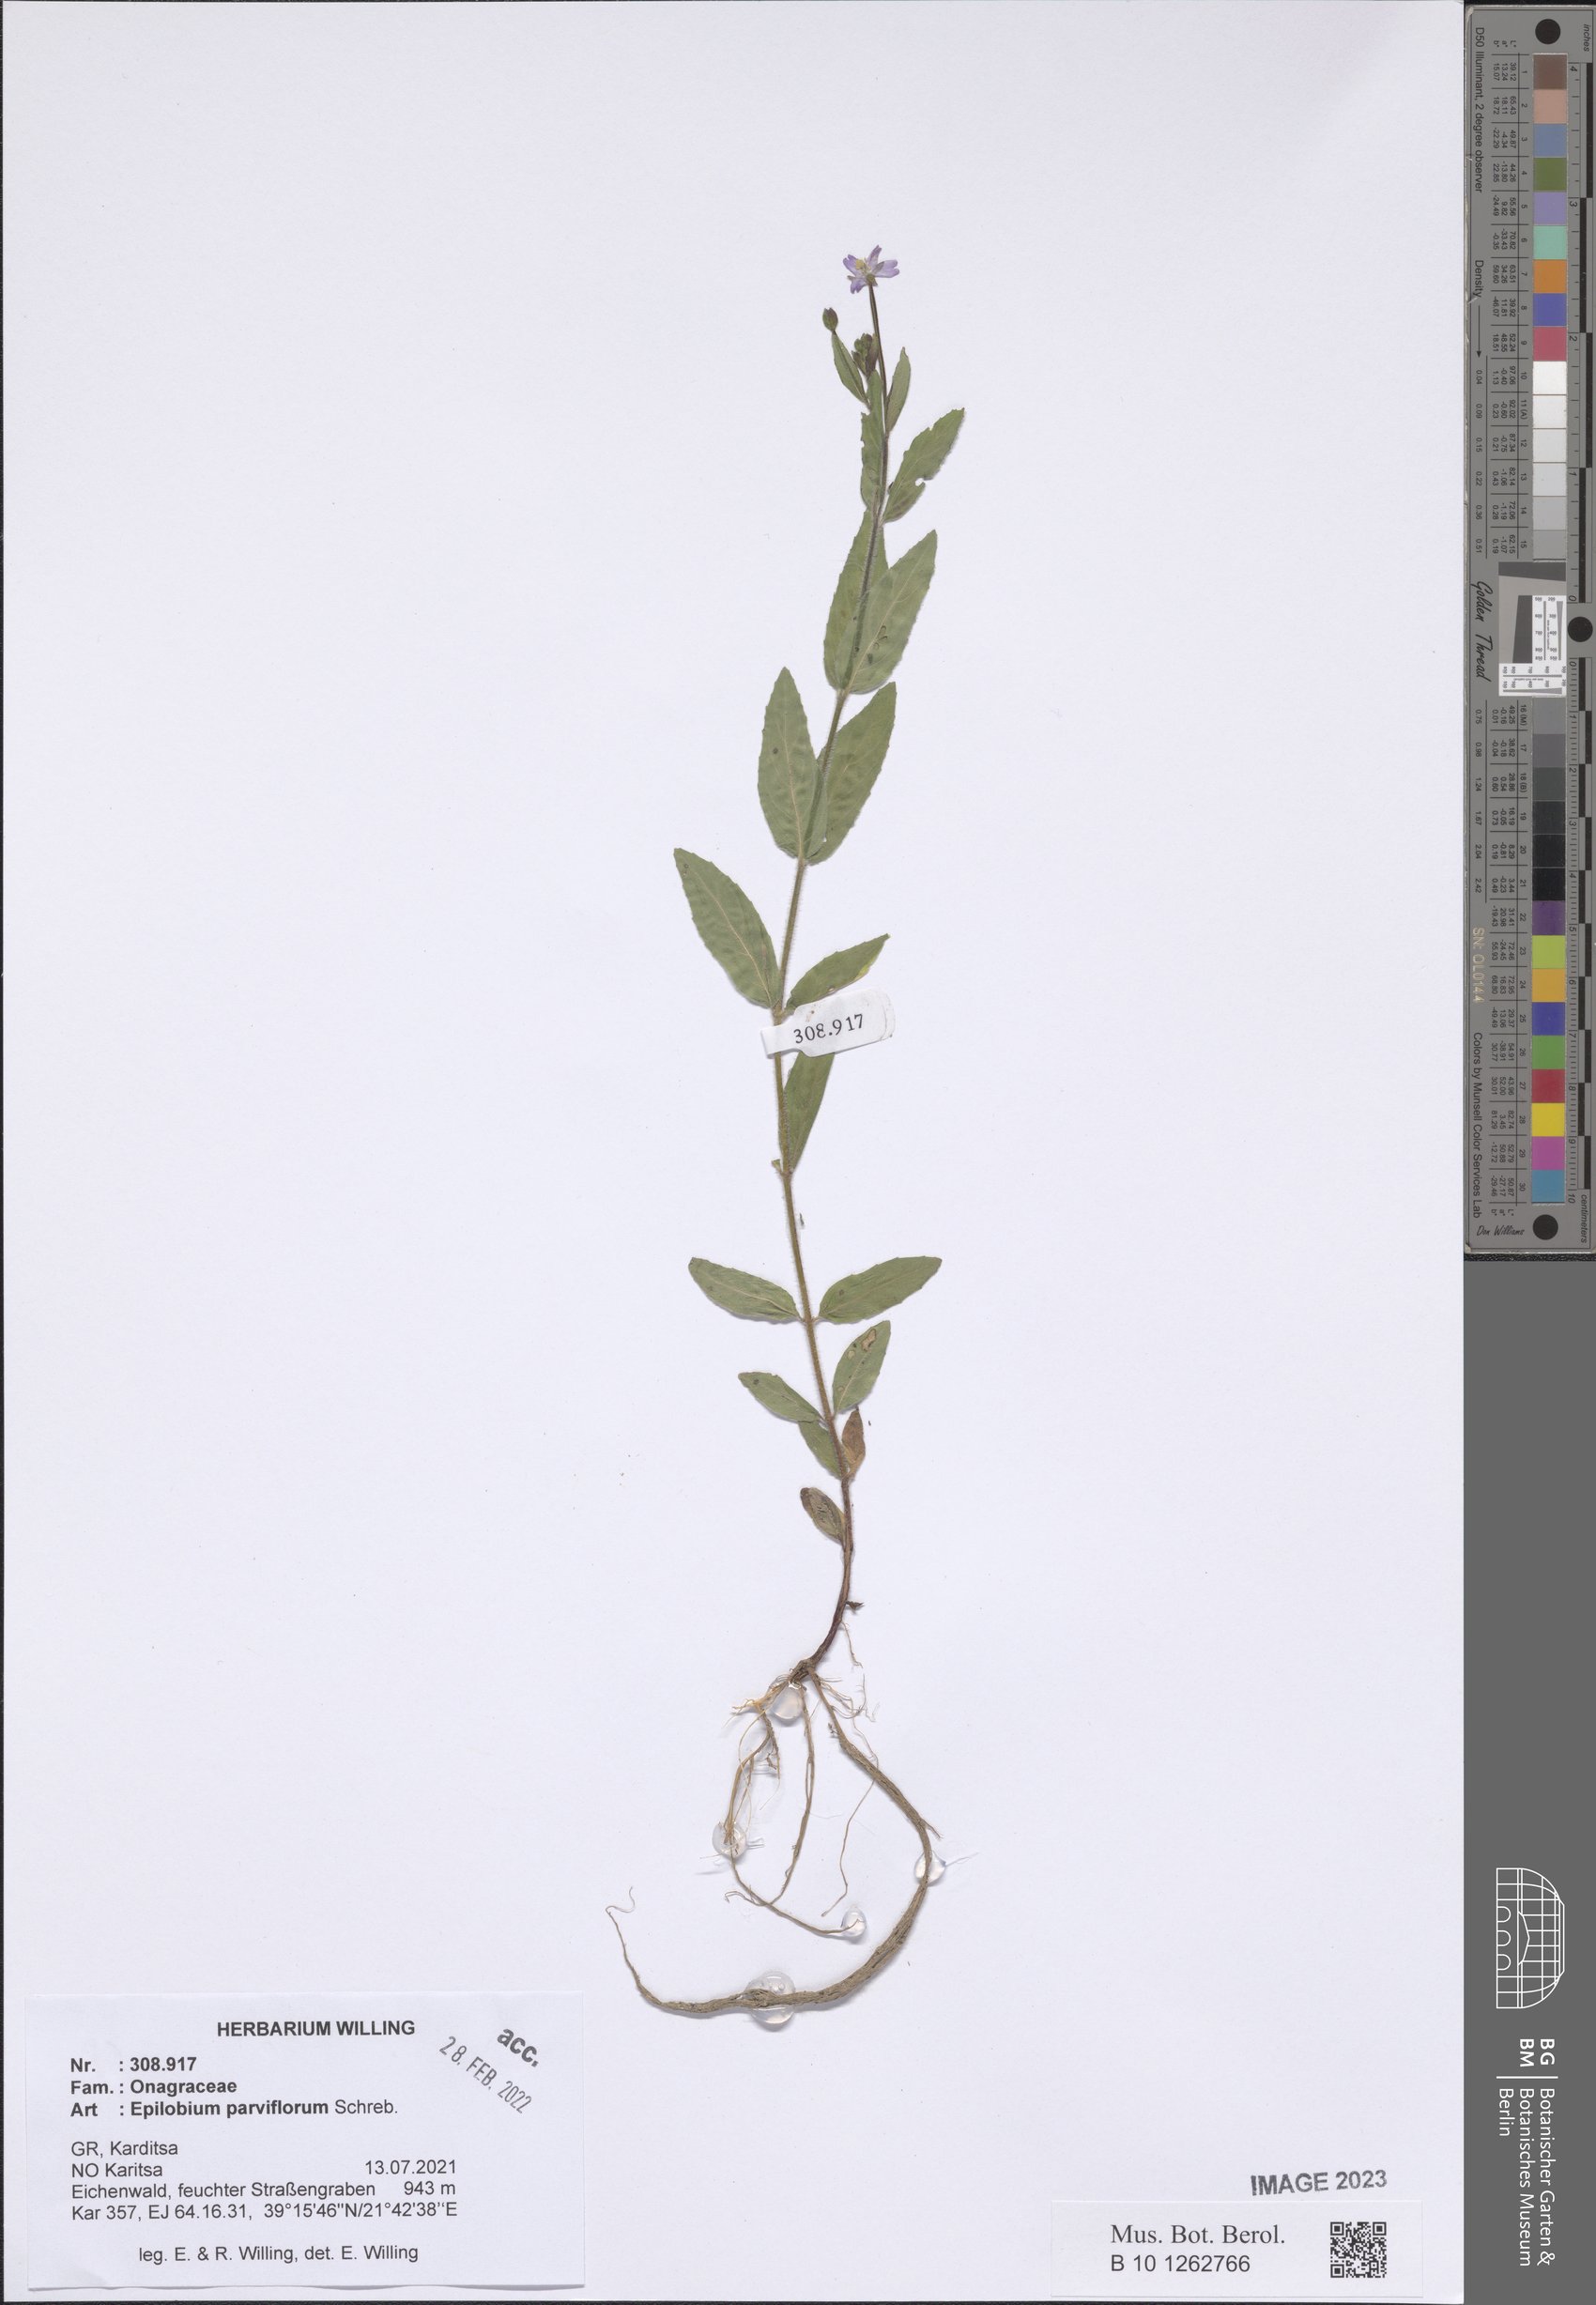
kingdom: Plantae
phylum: Tracheophyta
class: Magnoliopsida
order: Myrtales
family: Onagraceae
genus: Epilobium
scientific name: Epilobium parviflorum
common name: Hoary willowherb
